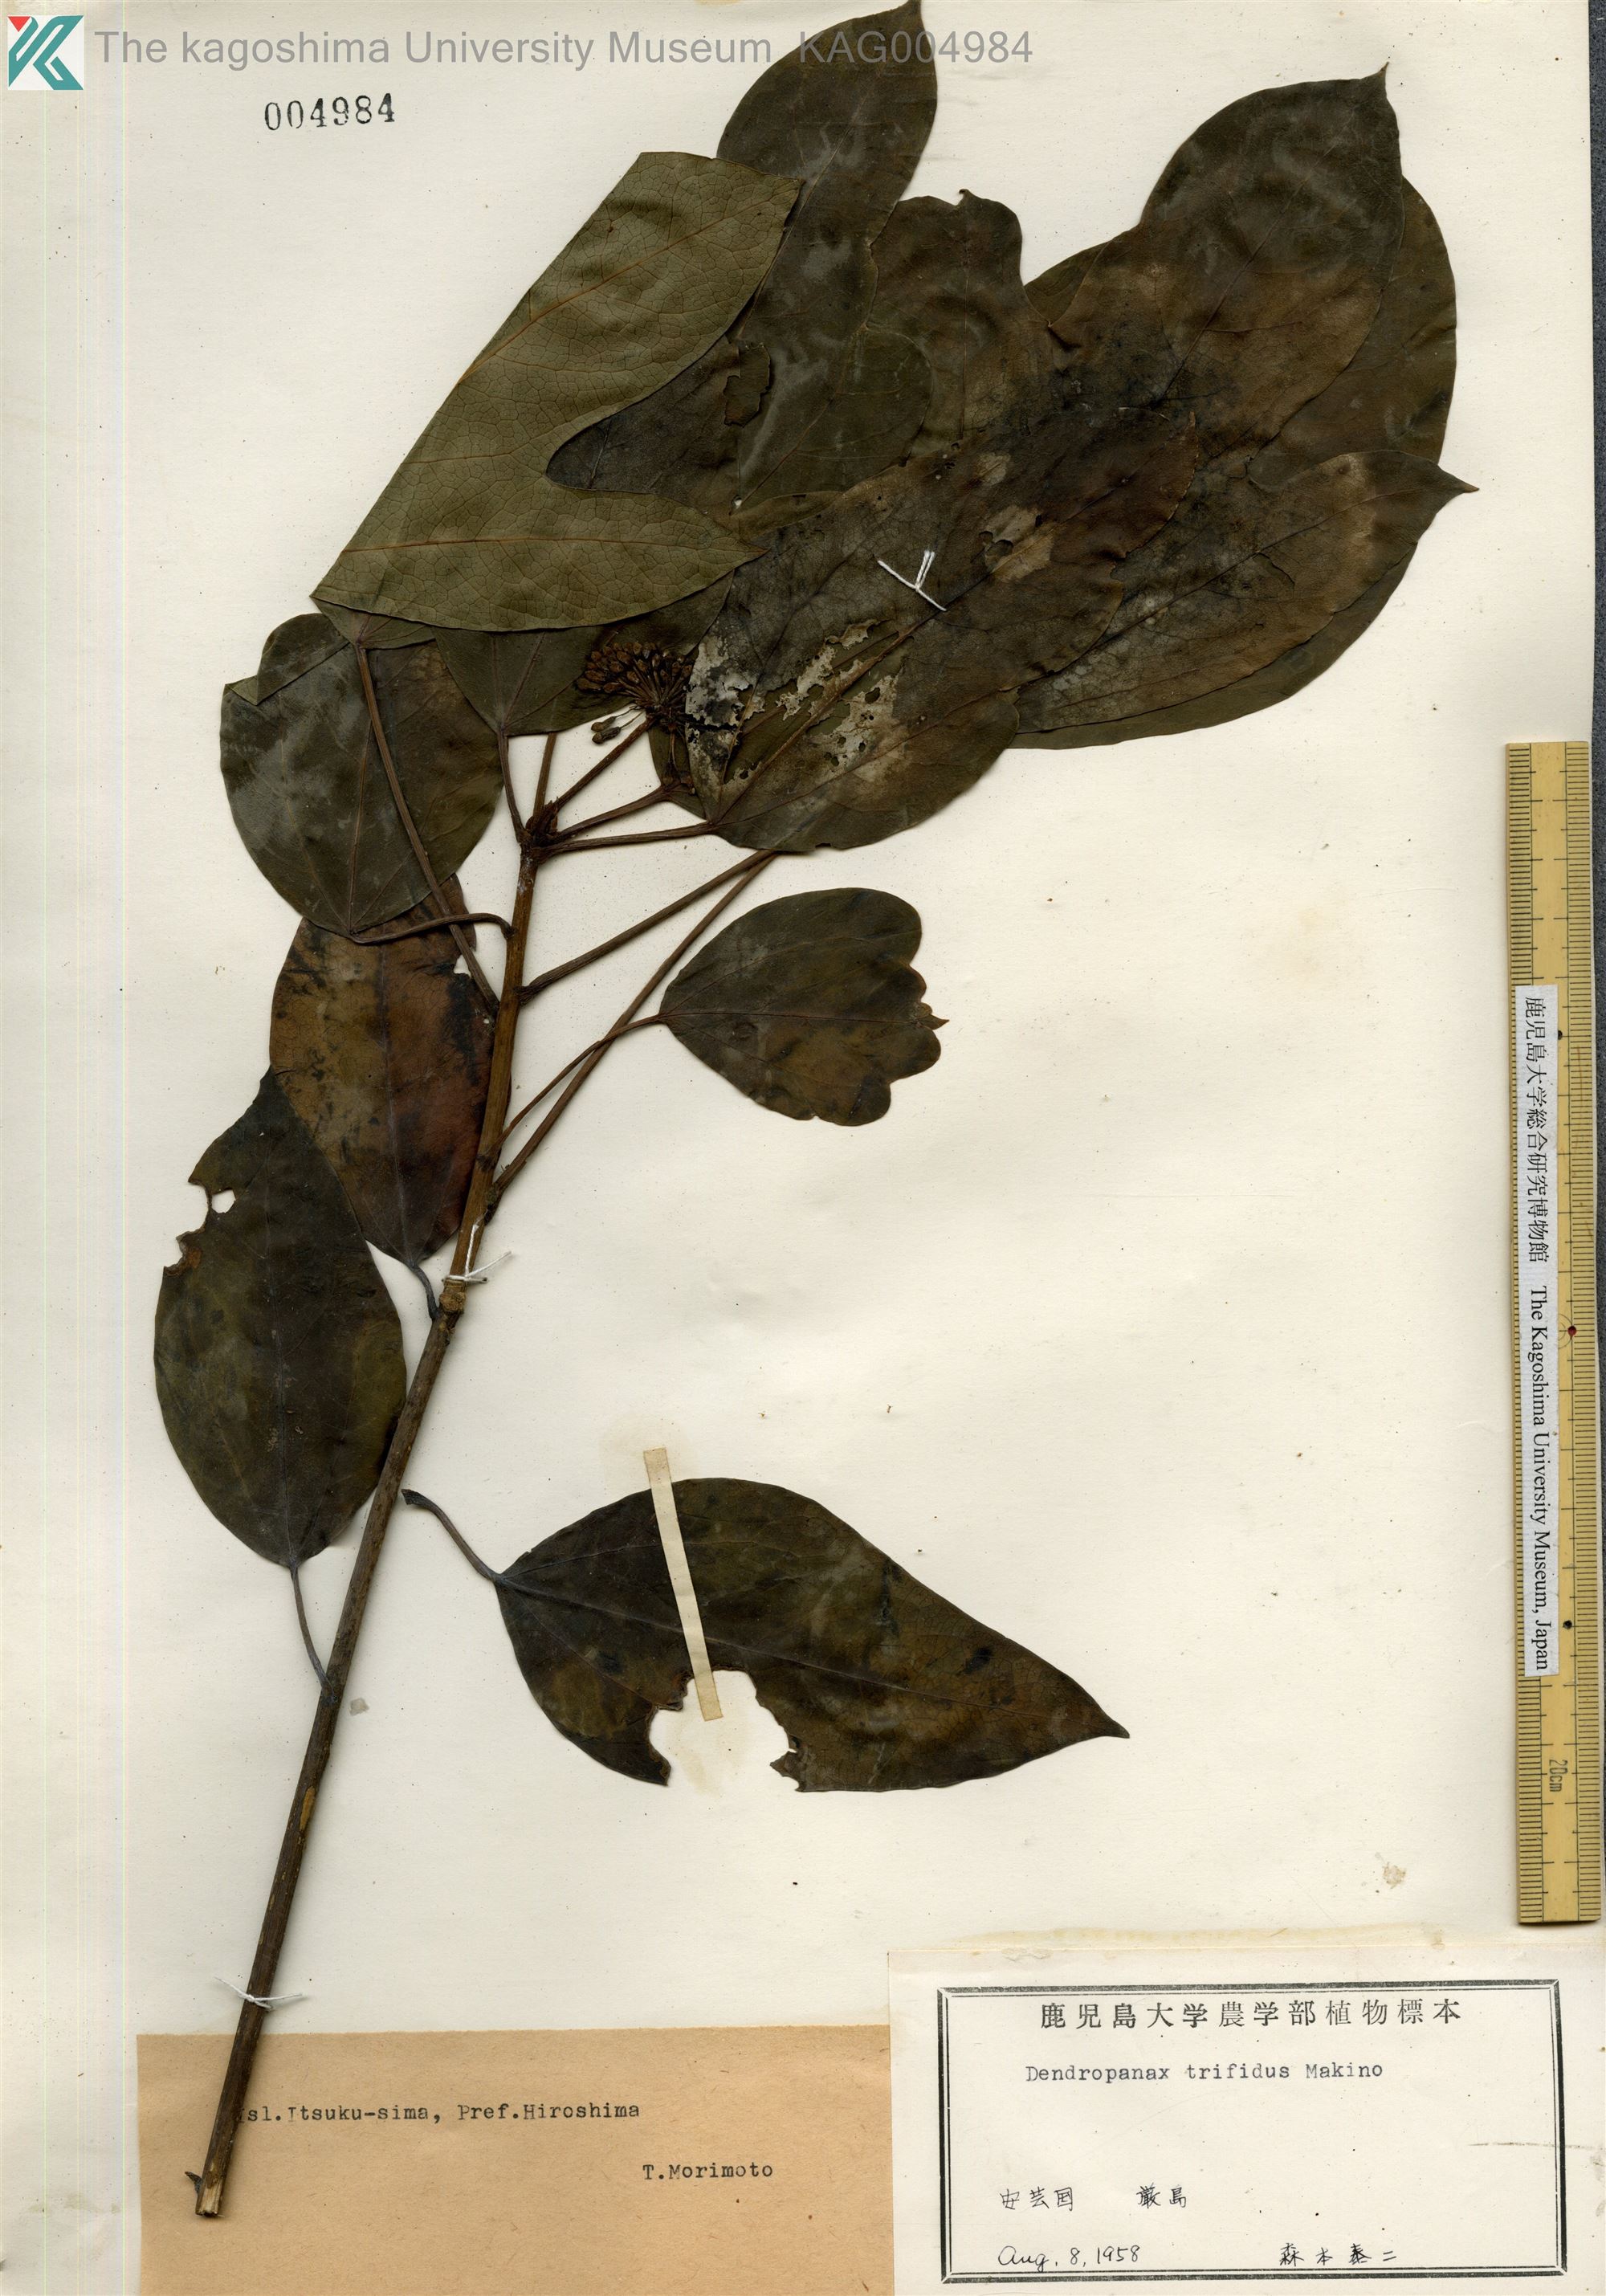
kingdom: Plantae
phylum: Tracheophyta
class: Magnoliopsida
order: Apiales
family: Araliaceae
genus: Dendropanax
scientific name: Dendropanax trifidus
